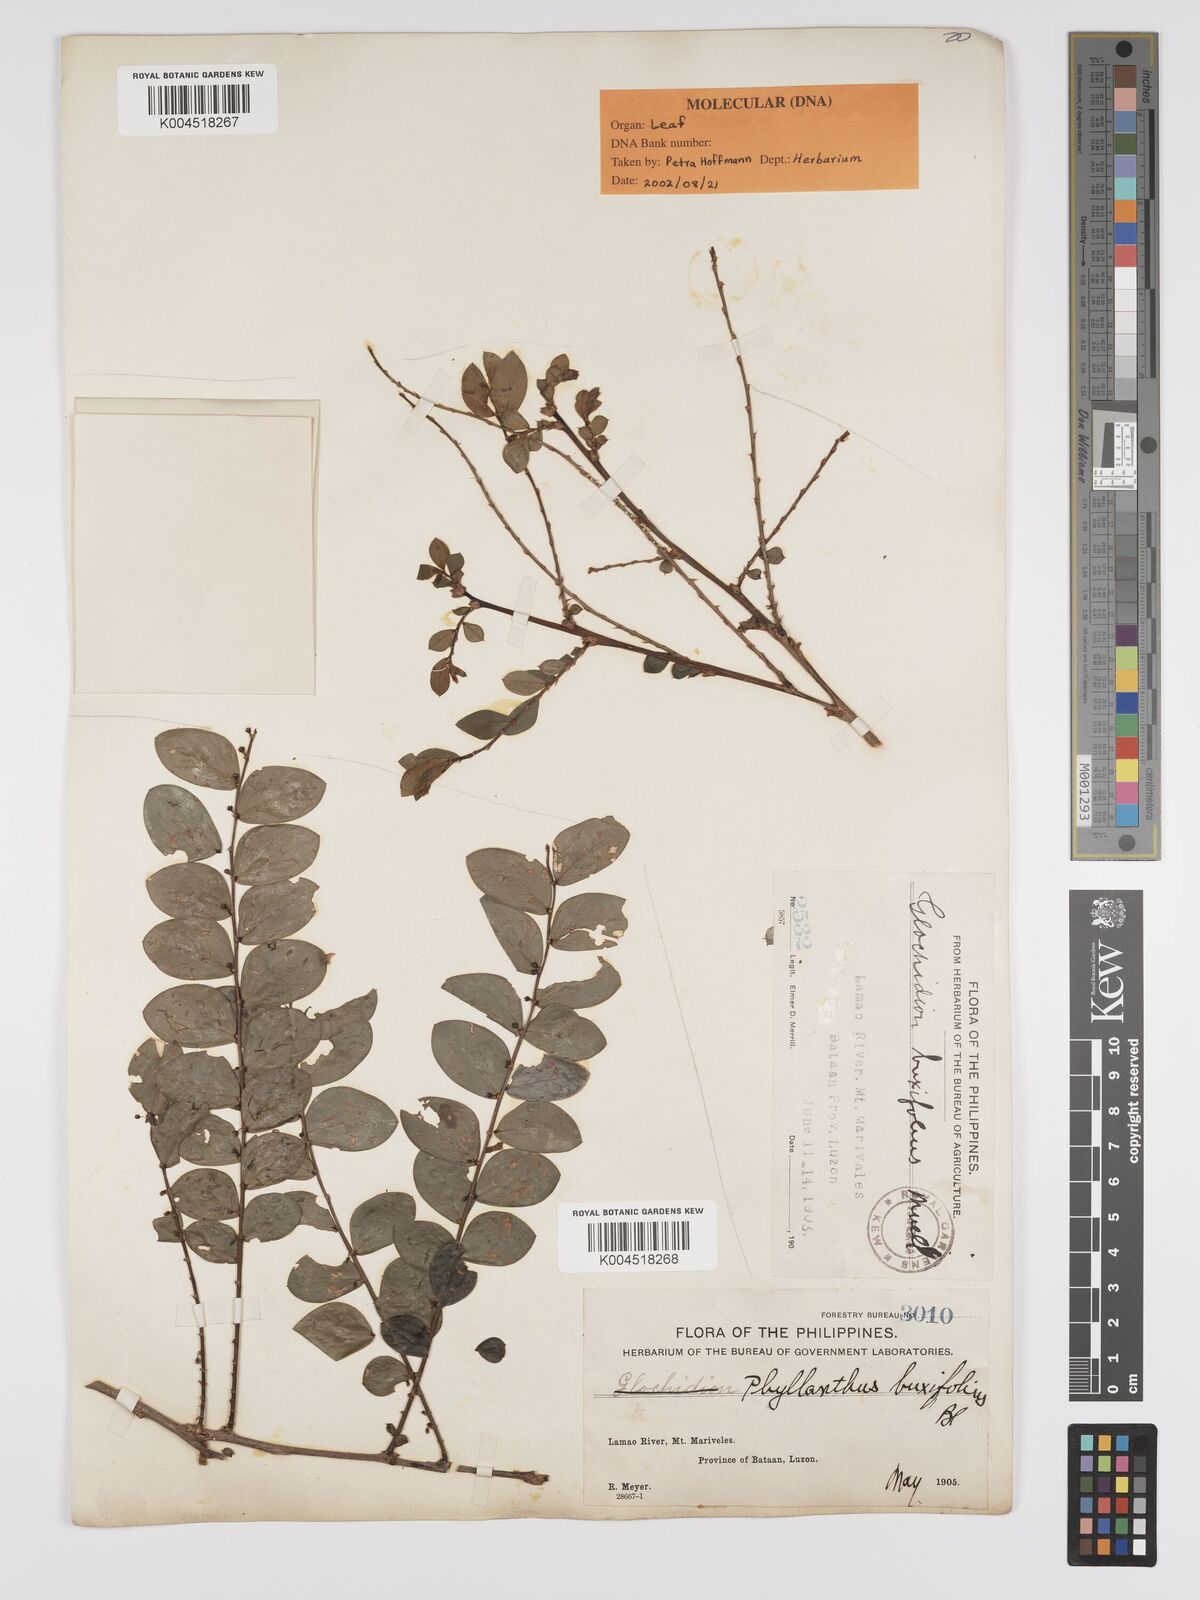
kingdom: Plantae
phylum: Tracheophyta
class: Magnoliopsida
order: Malpighiales
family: Phyllanthaceae
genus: Phyllanthus
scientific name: Phyllanthus buxifolius
